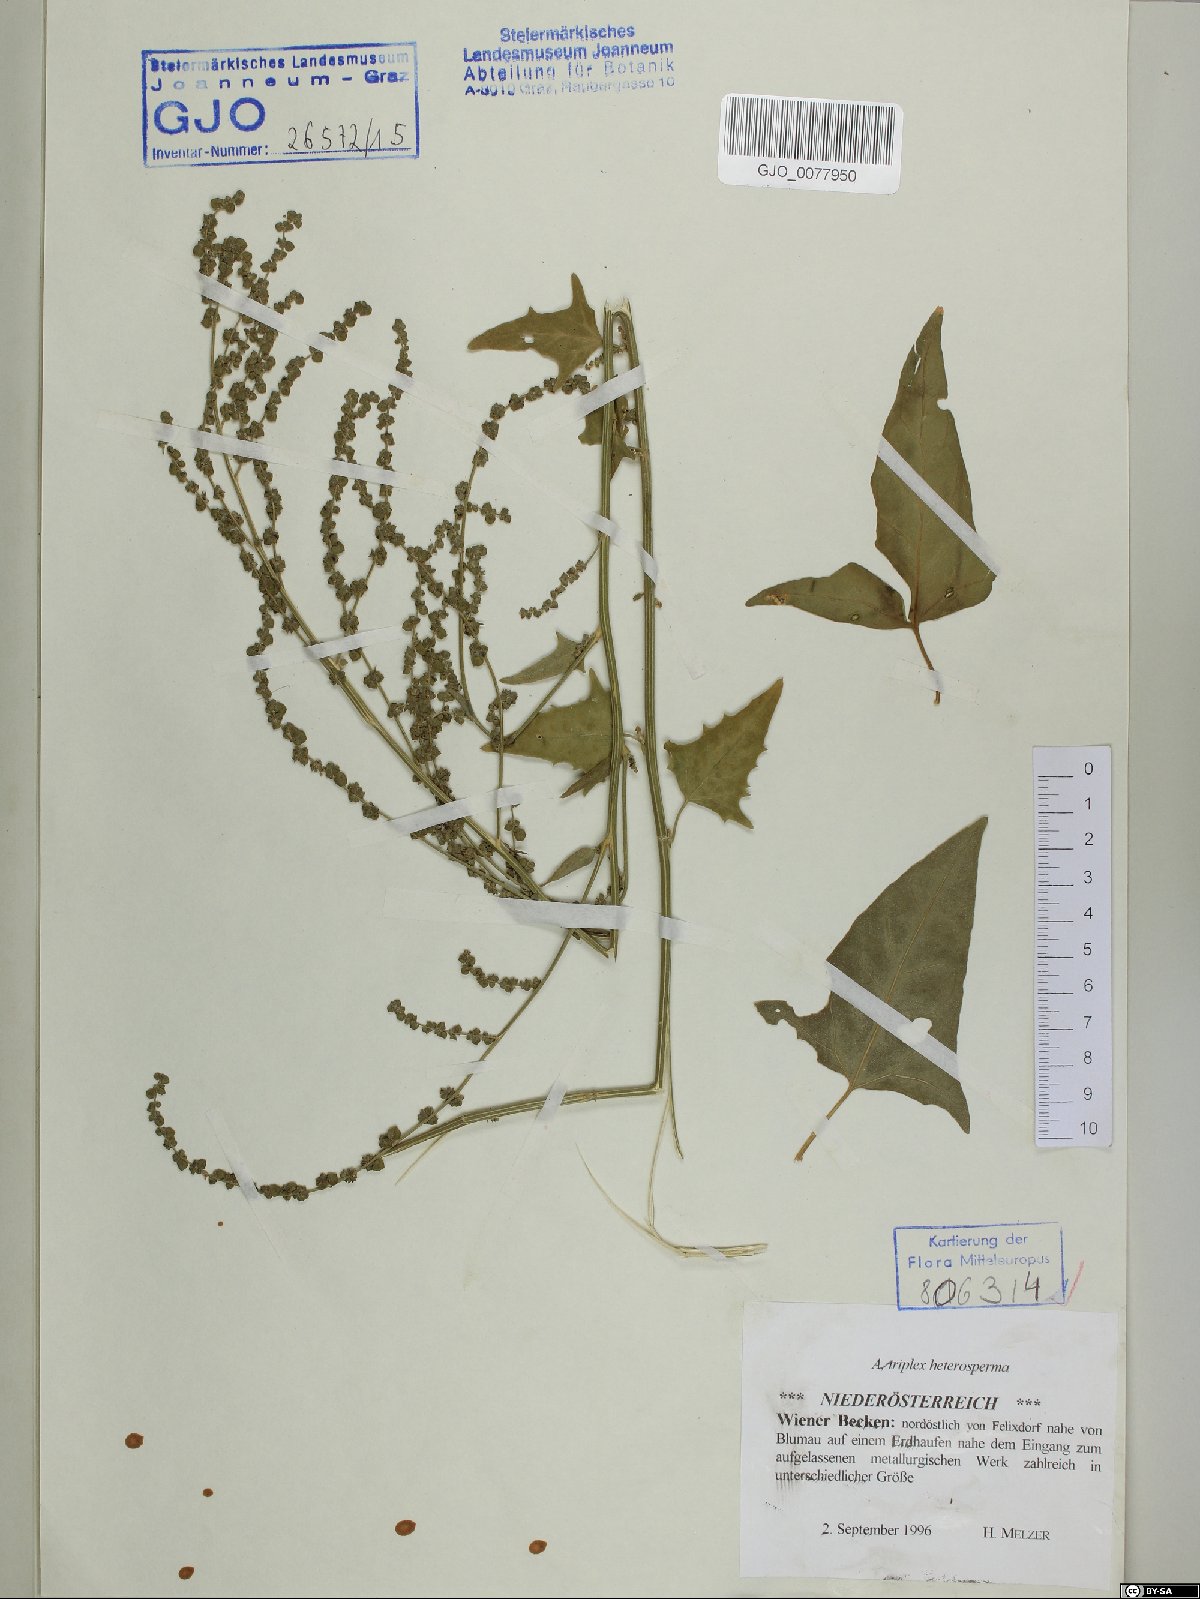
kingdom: Plantae
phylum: Tracheophyta
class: Magnoliopsida
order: Caryophyllales
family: Amaranthaceae
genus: Atriplex
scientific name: Atriplex micrantha
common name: Twoscale saltbush
